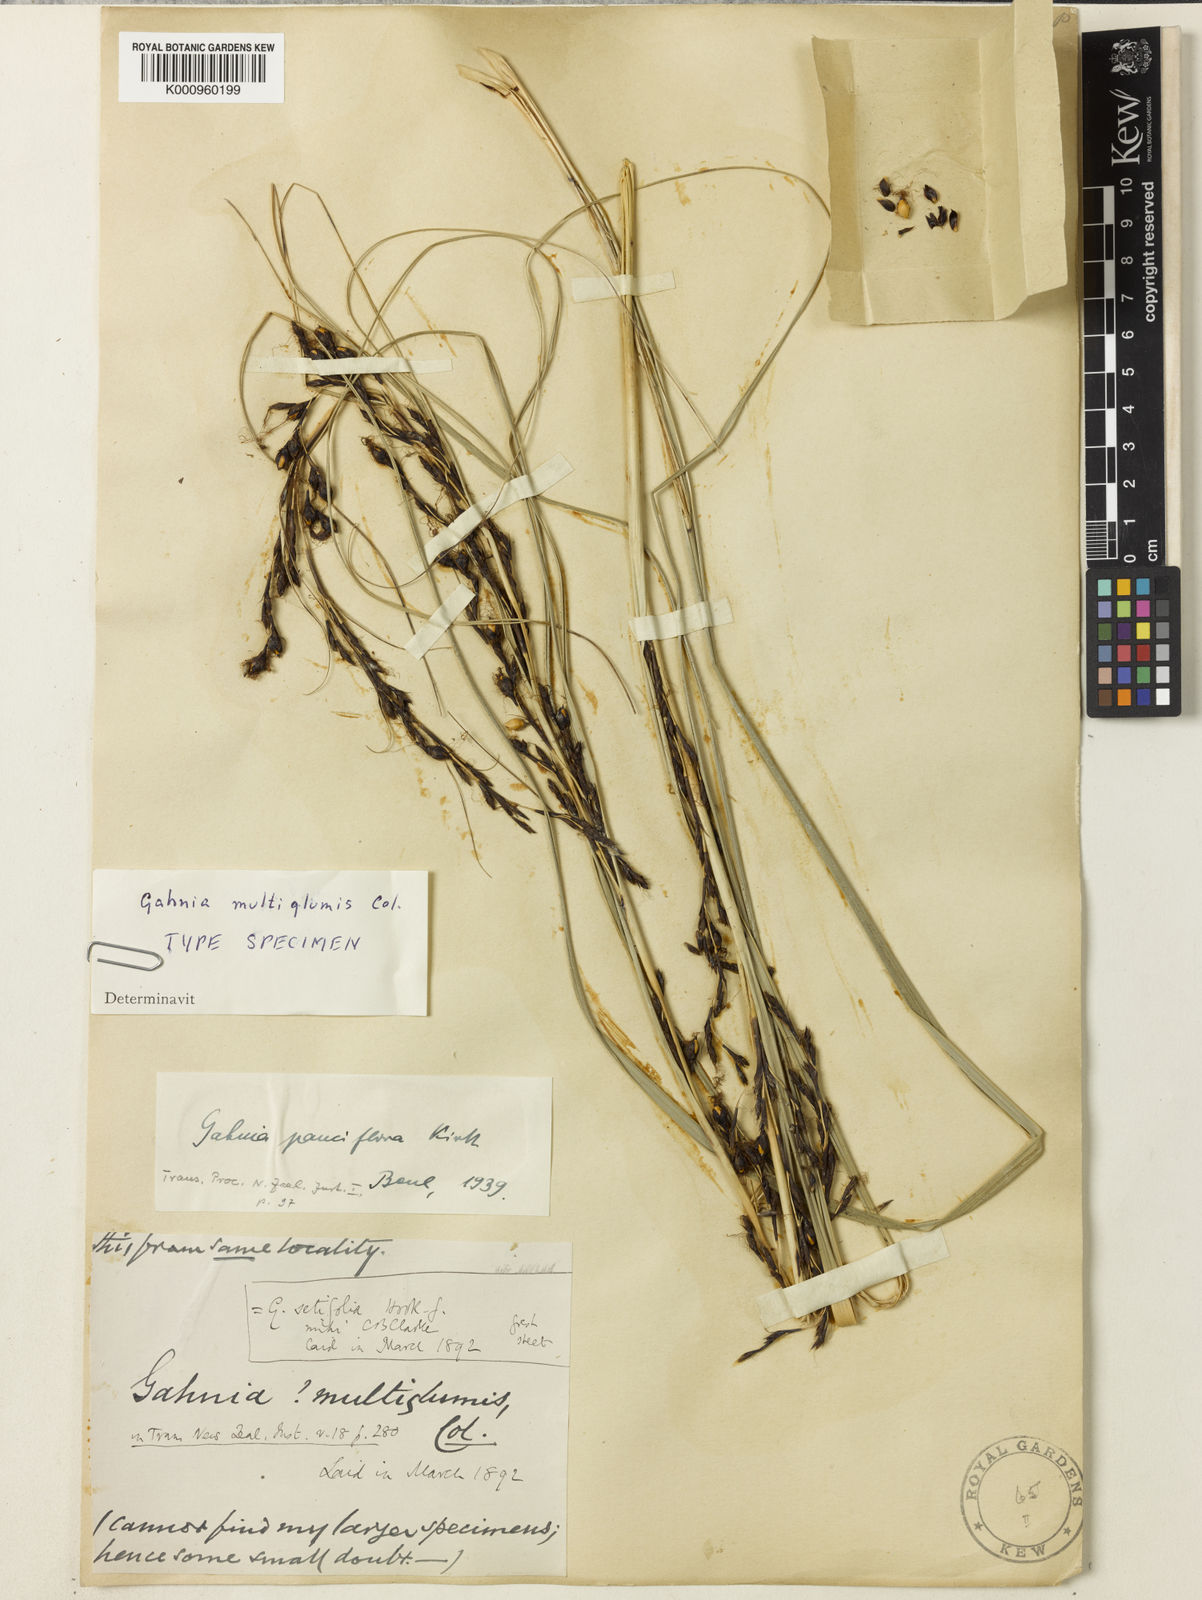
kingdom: Plantae
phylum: Tracheophyta
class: Liliopsida
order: Poales
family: Cyperaceae
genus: Gahnia
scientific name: Gahnia pauciflora
